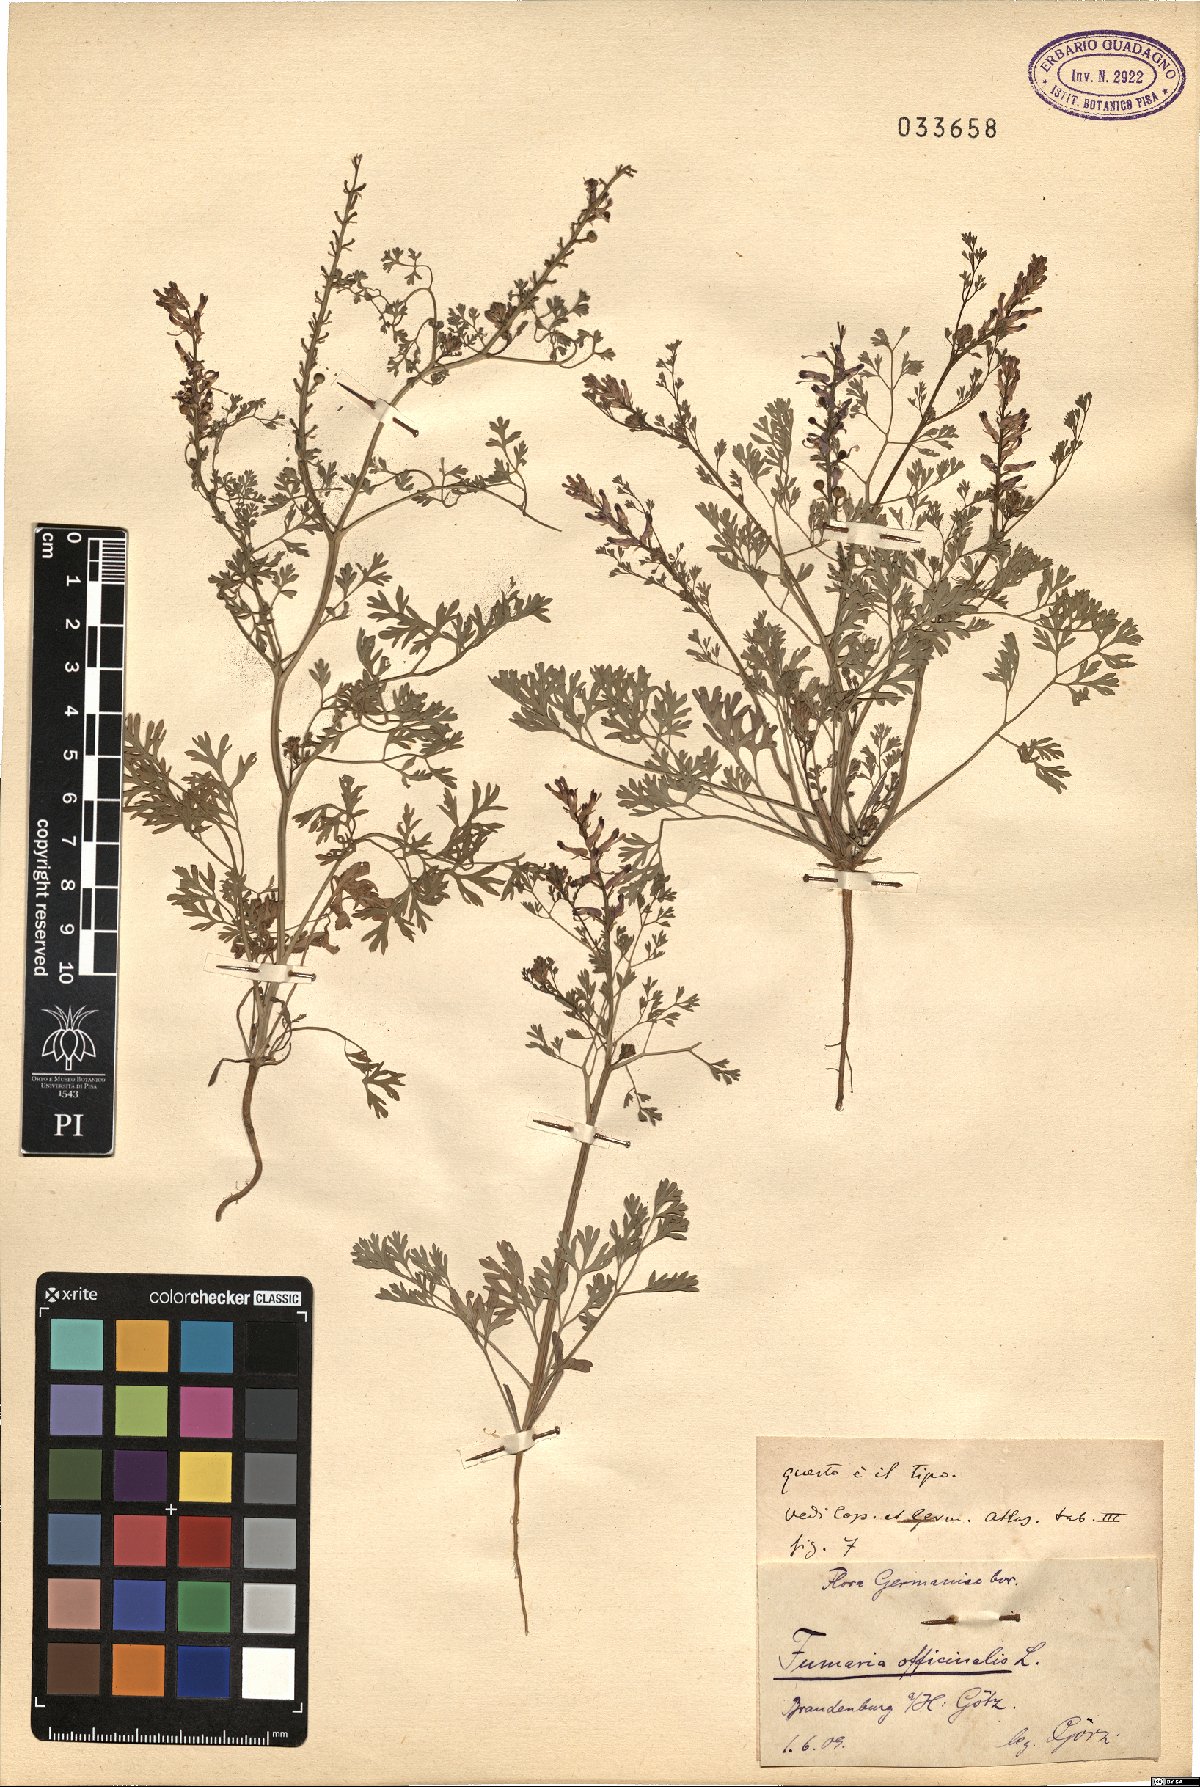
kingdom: Plantae
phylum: Tracheophyta
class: Magnoliopsida
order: Ranunculales
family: Papaveraceae
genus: Fumaria
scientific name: Fumaria officinalis
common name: Common fumitory
